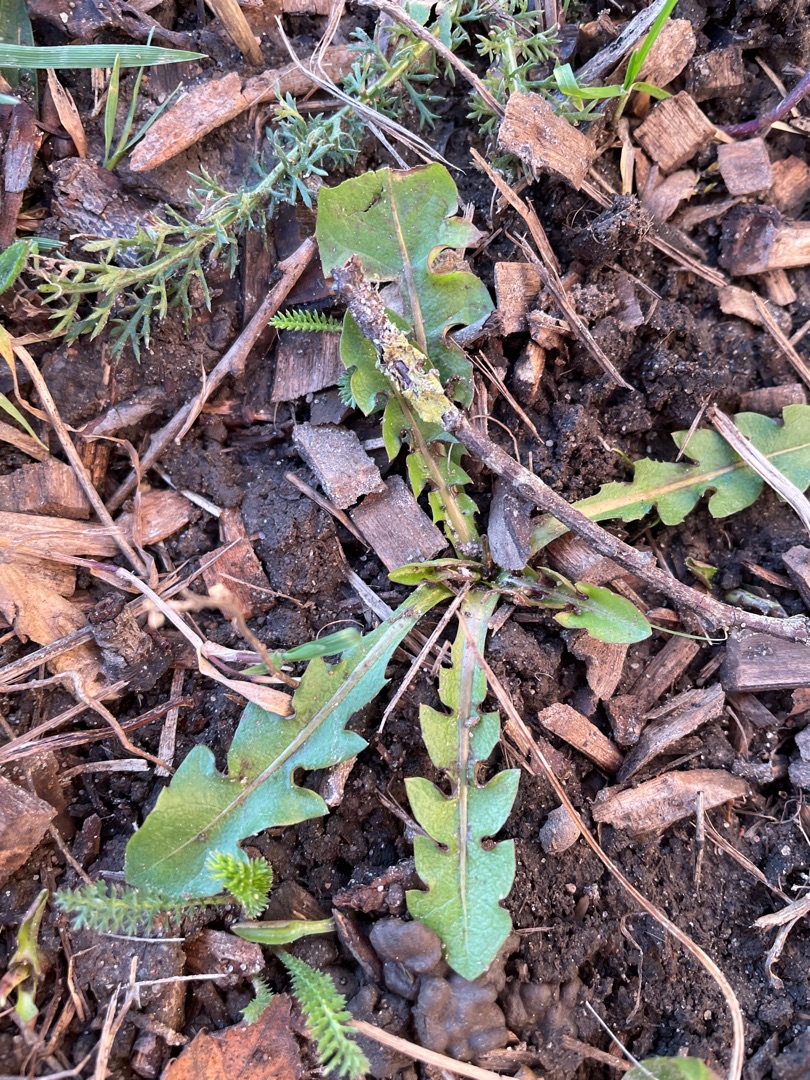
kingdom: Plantae
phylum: Tracheophyta
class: Magnoliopsida
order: Asterales
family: Asteraceae
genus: Taraxacum
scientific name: Taraxacum
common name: Mælkebøtteslægten
